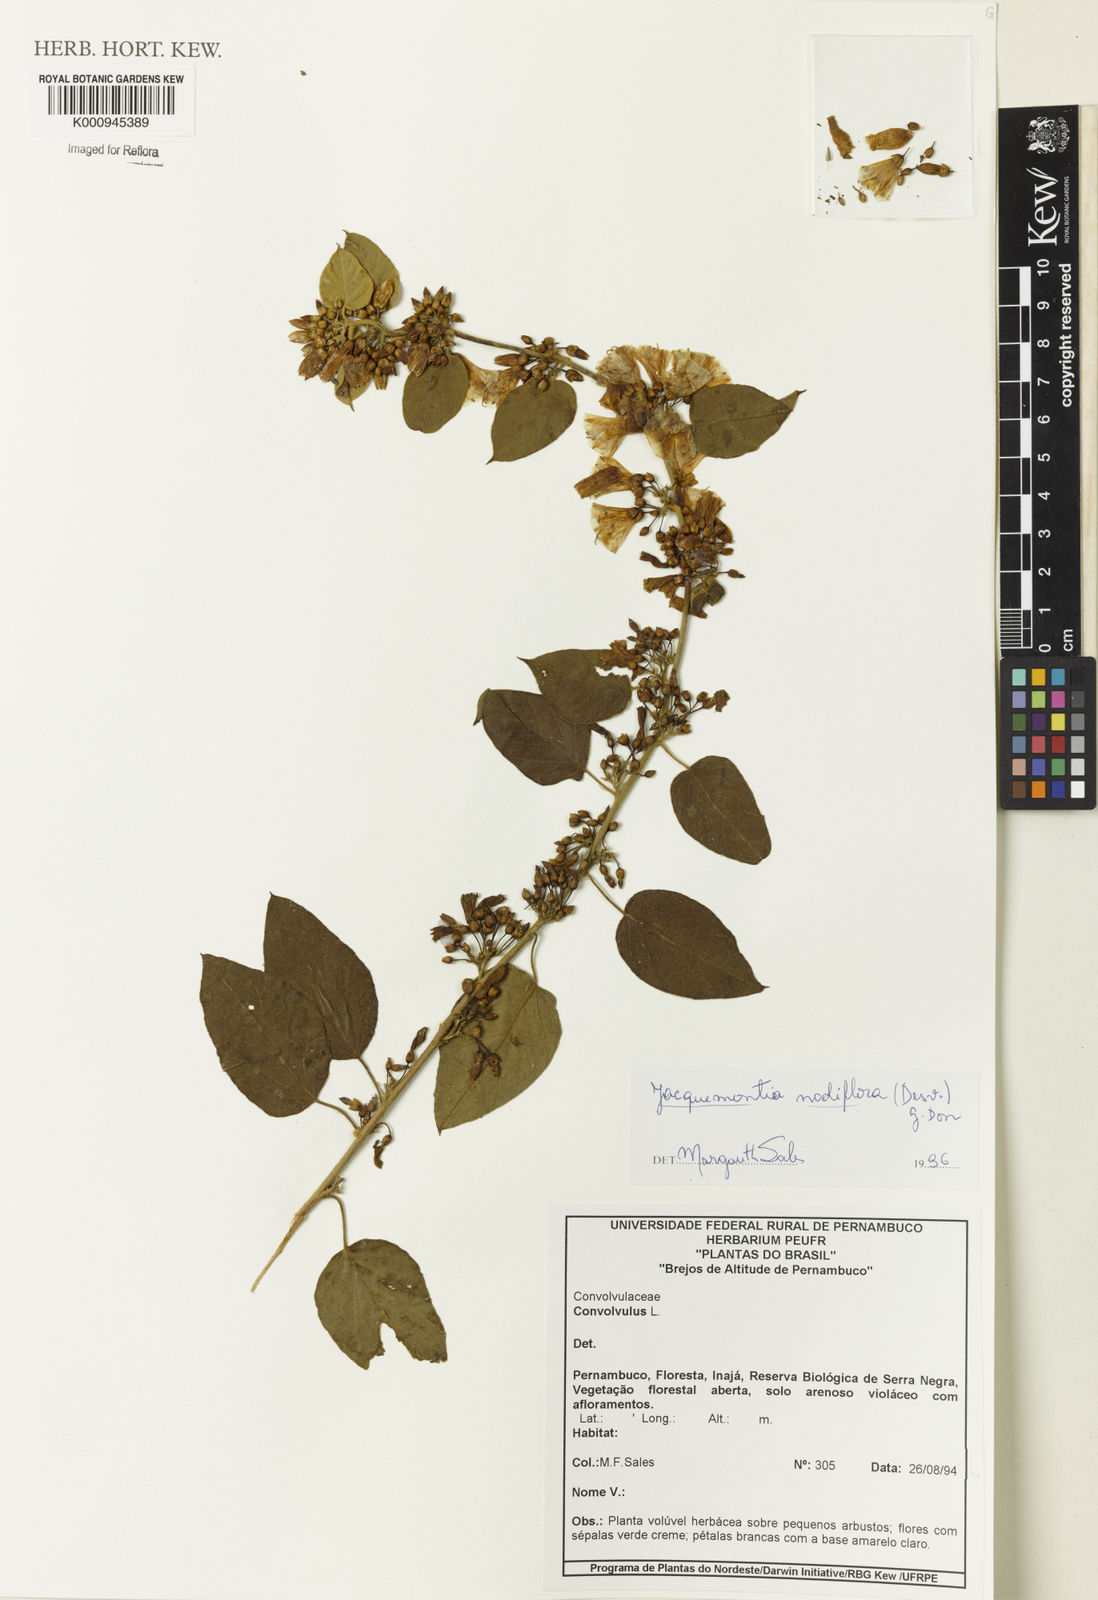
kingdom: Plantae
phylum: Tracheophyta
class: Magnoliopsida
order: Solanales
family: Convolvulaceae
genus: Jacquemontia
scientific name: Jacquemontia nodiflora
